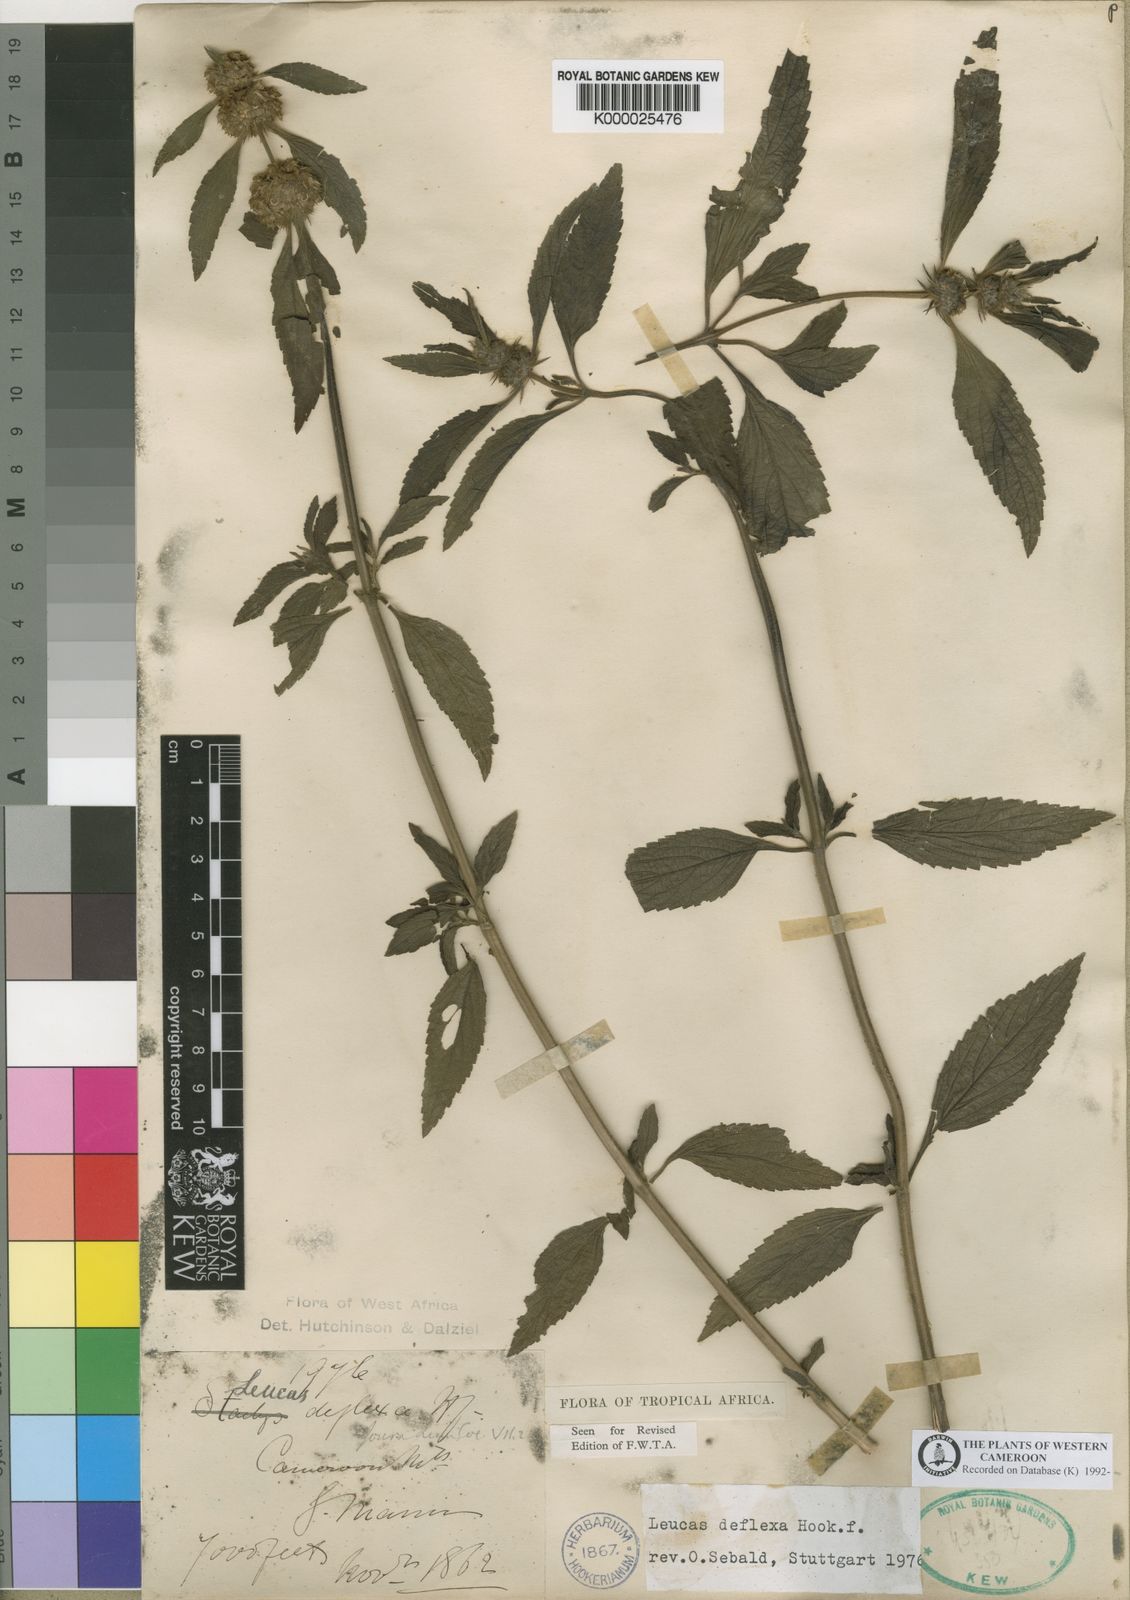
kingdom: Plantae
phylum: Tracheophyta
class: Magnoliopsida
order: Lamiales
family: Lamiaceae
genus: Leucas
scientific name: Leucas deflexa
